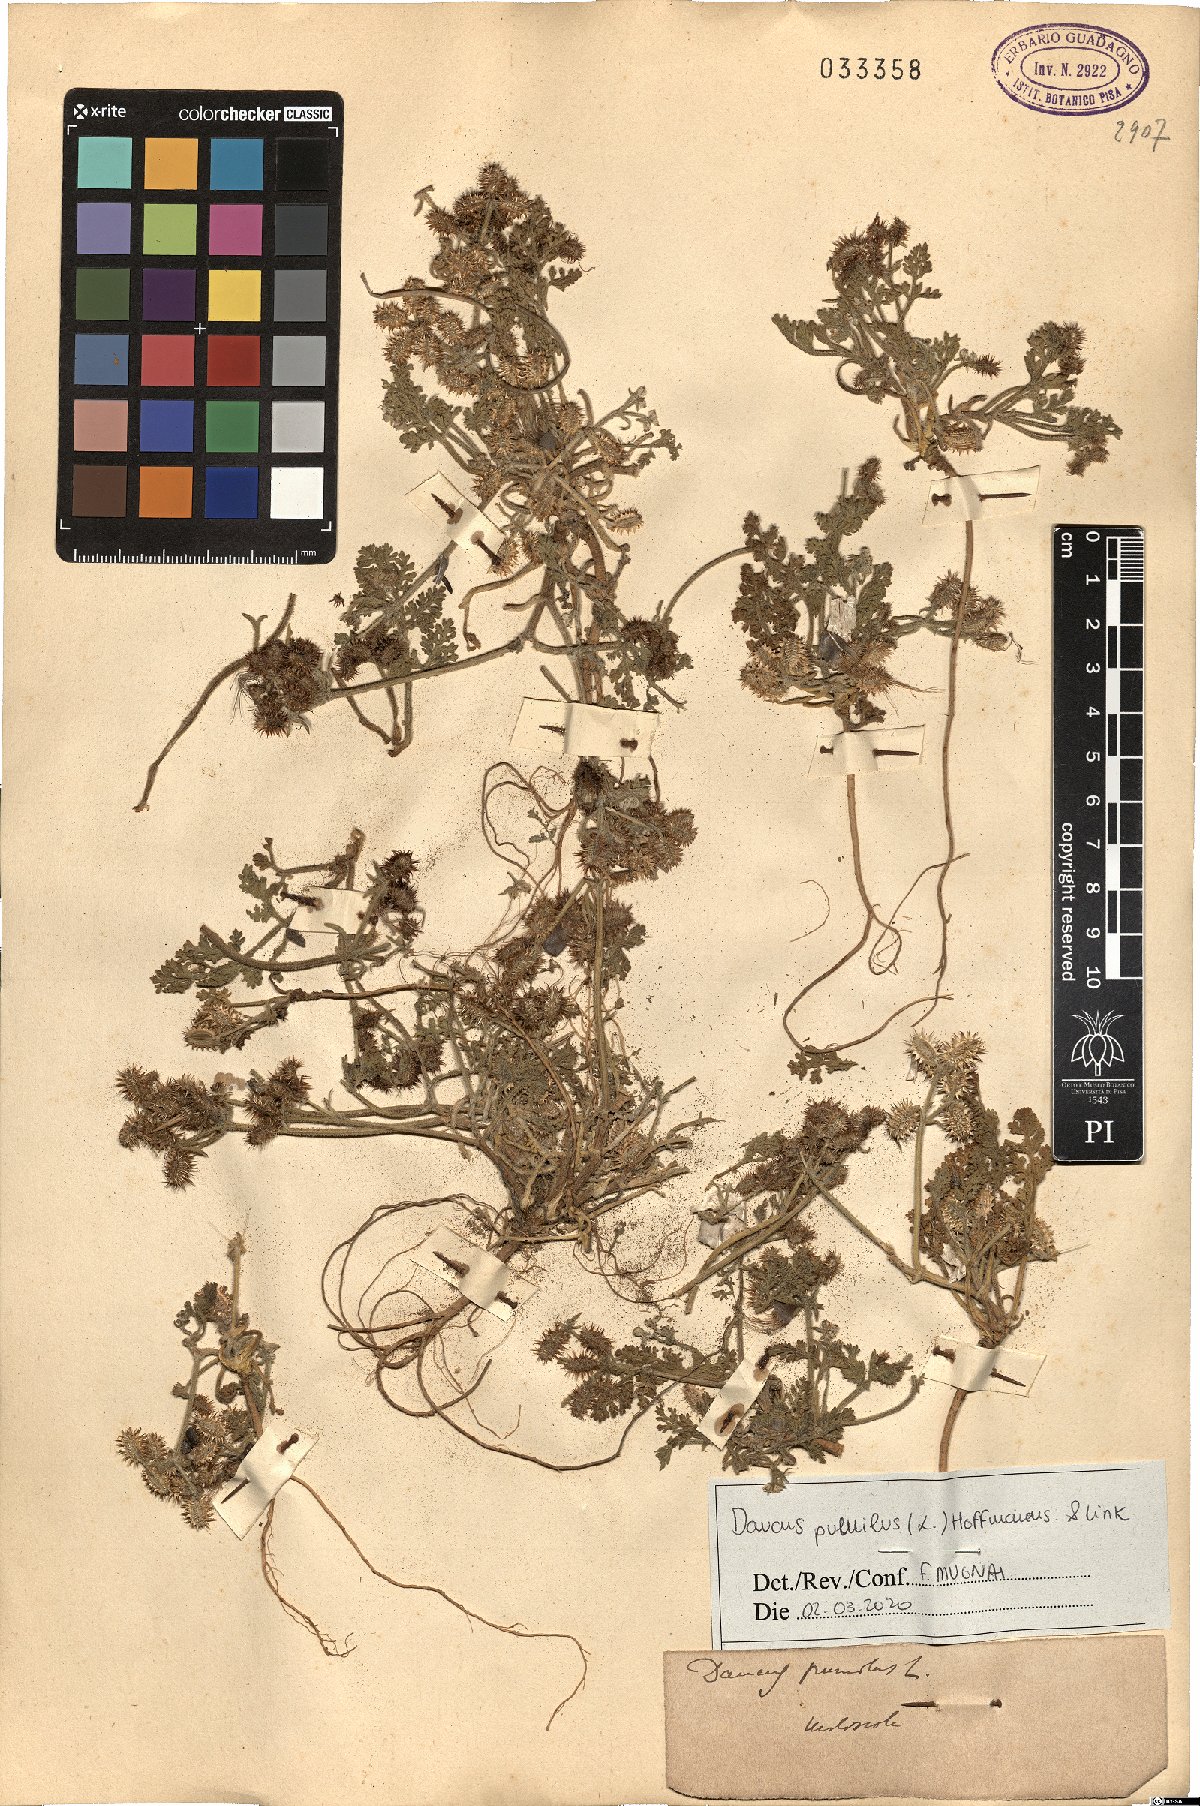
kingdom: Plantae
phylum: Tracheophyta
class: Magnoliopsida
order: Apiales
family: Apiaceae
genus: Daucus
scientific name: Daucus pumilus
